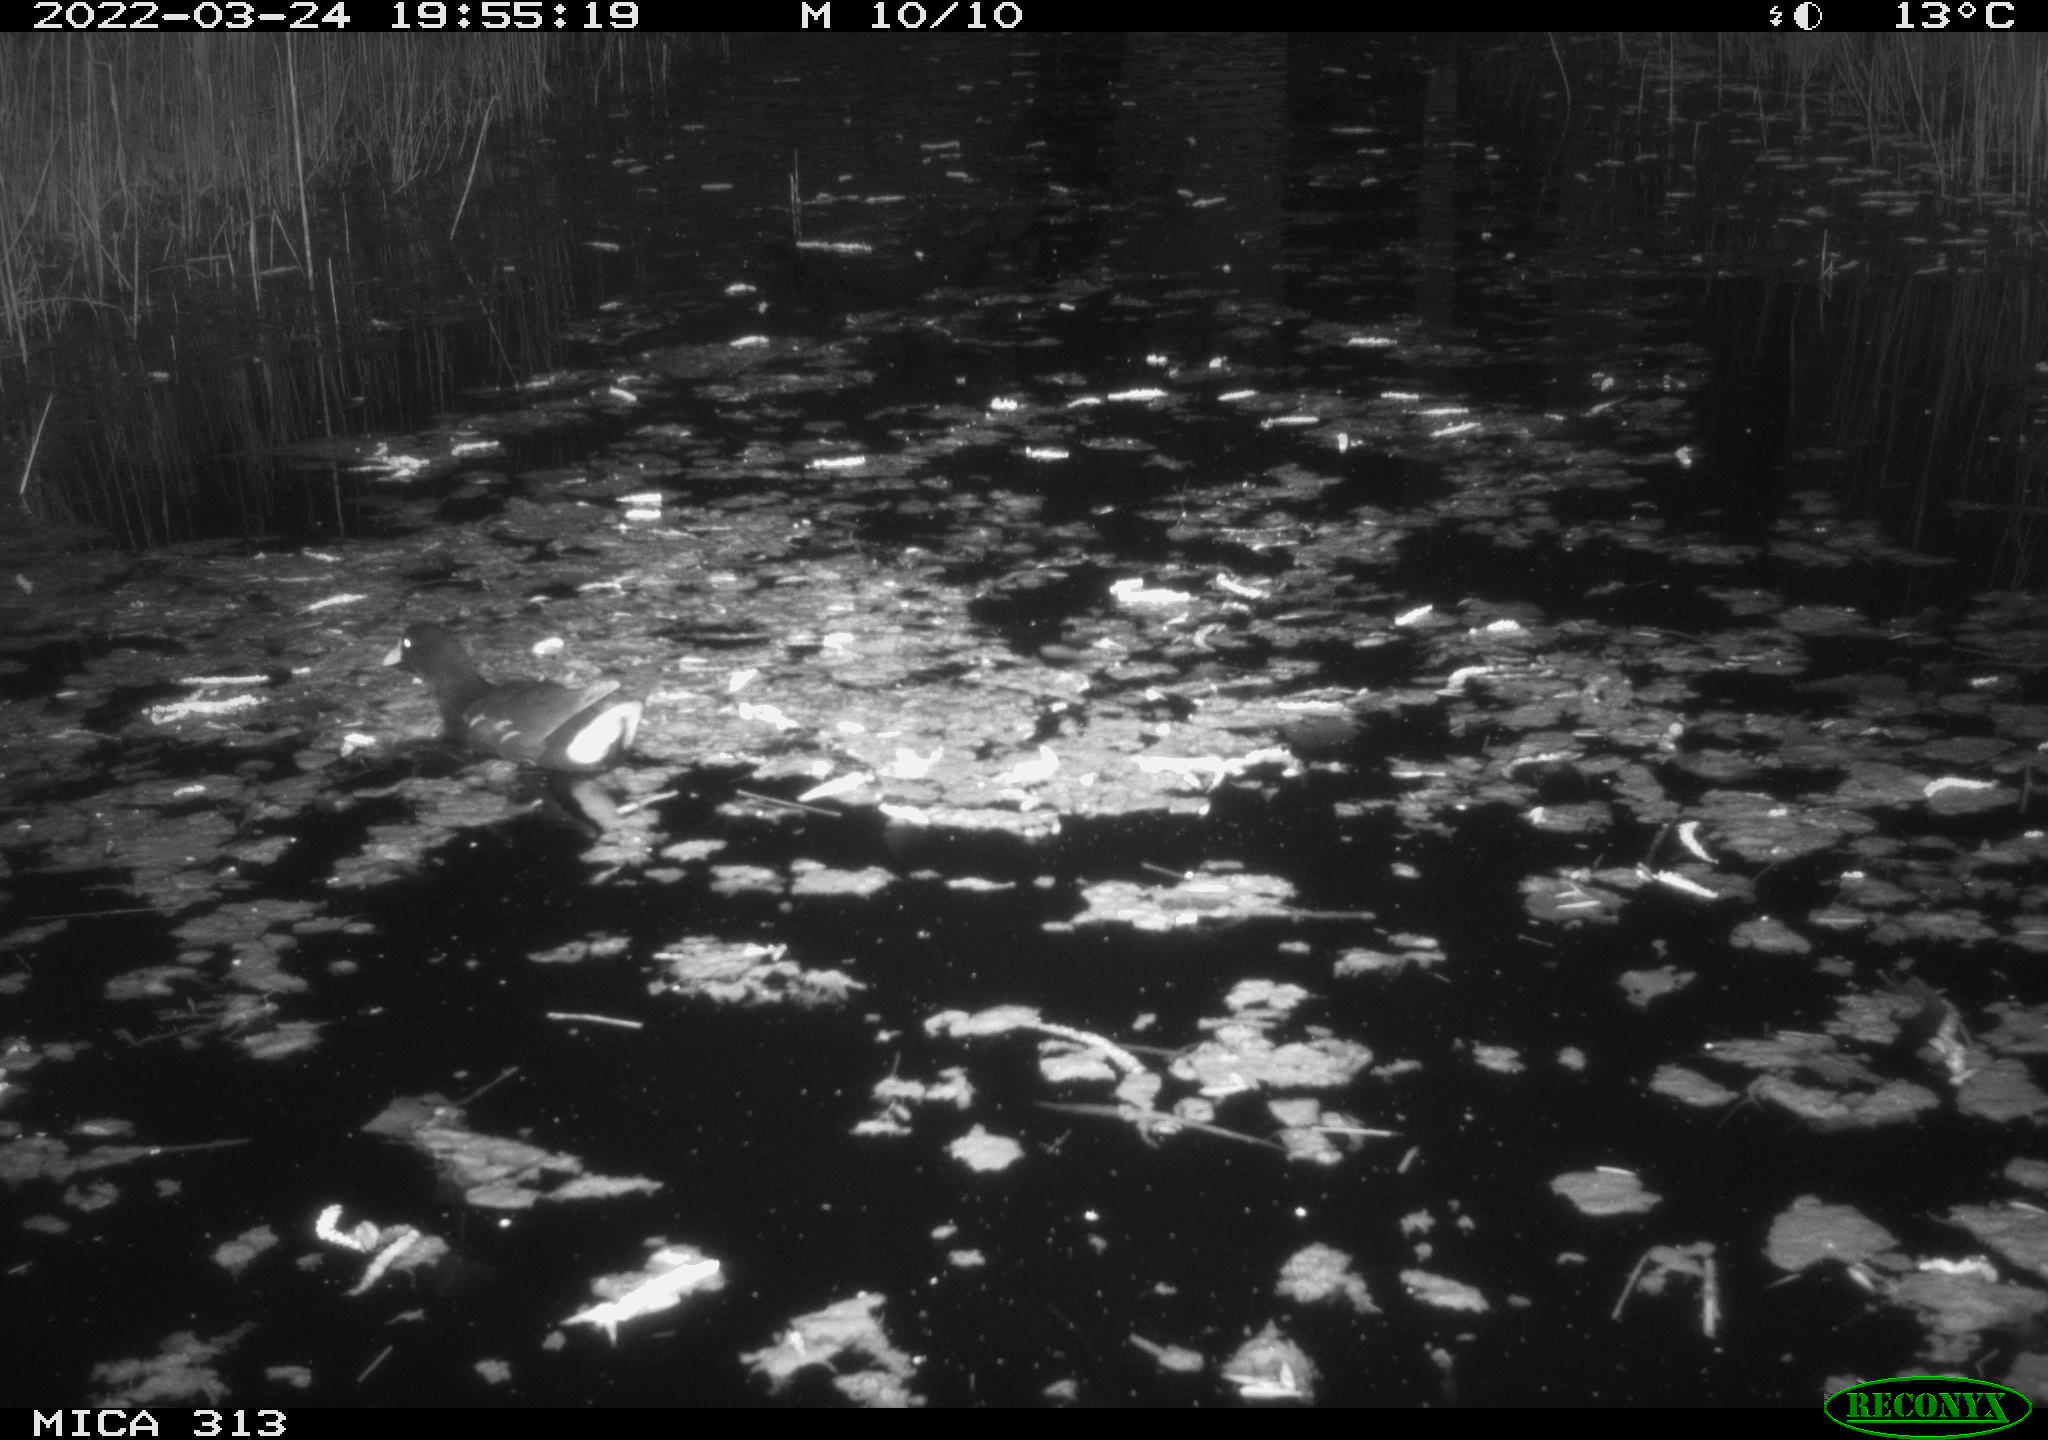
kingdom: Animalia
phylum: Chordata
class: Aves
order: Gruiformes
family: Rallidae
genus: Gallinula
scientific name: Gallinula chloropus
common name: Common moorhen
